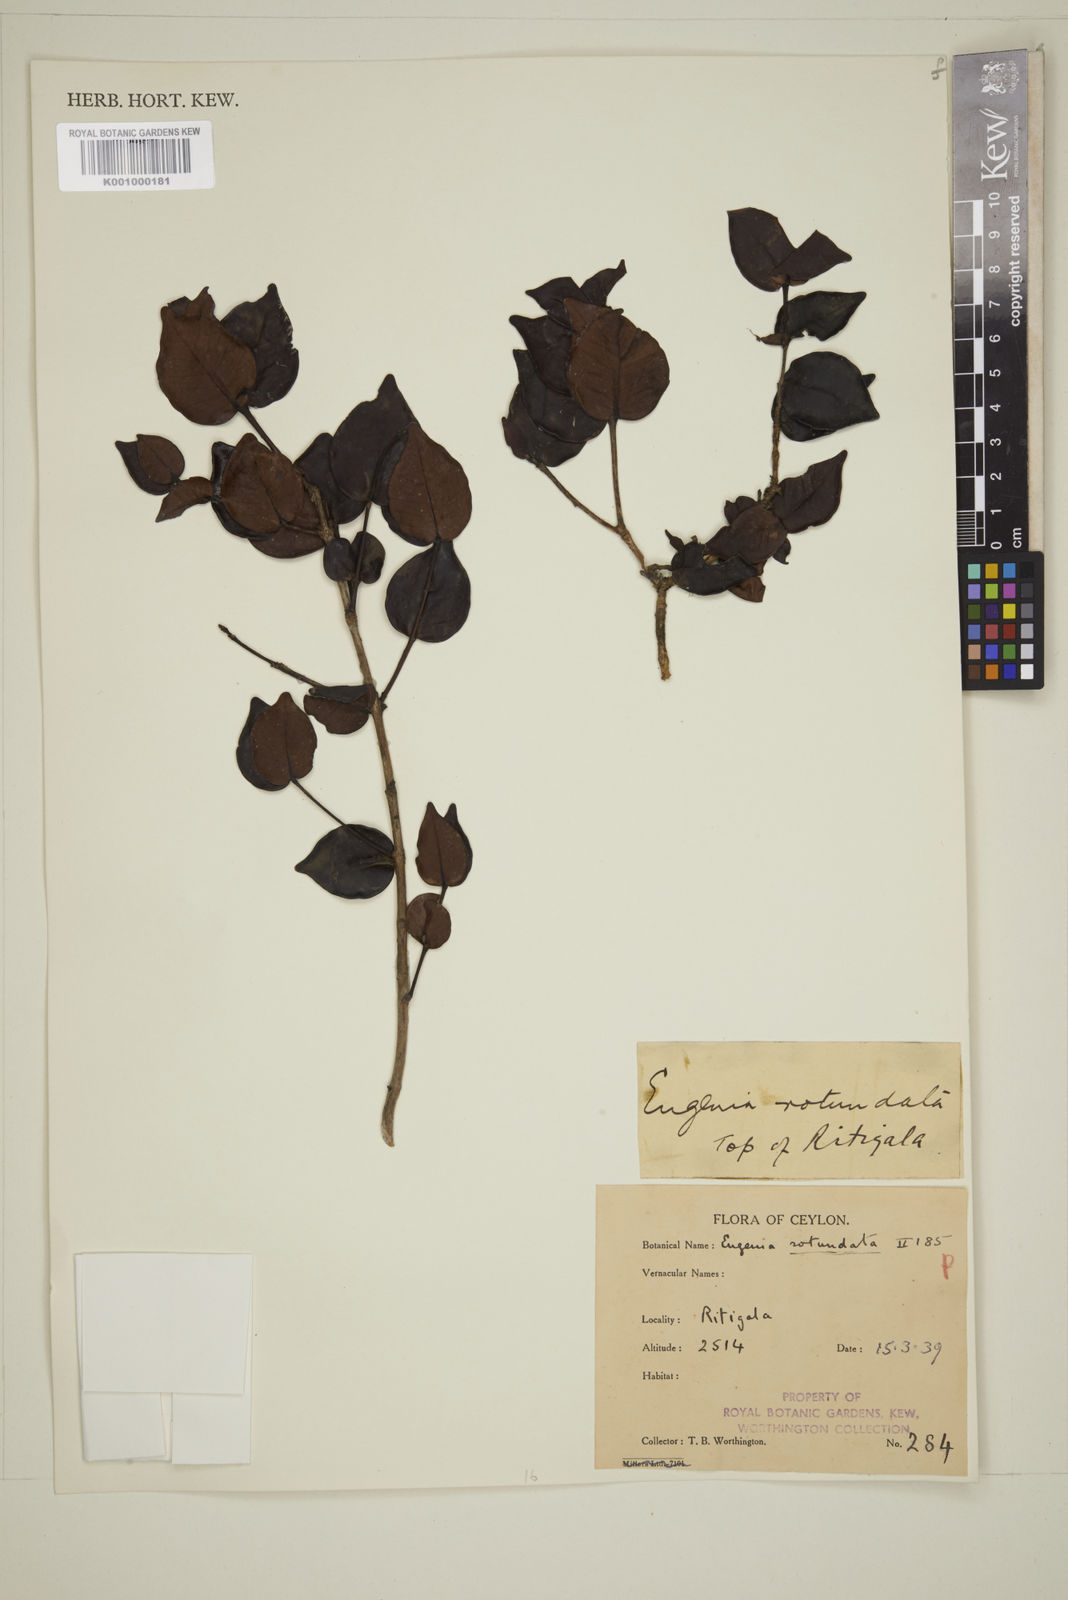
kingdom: Plantae
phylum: Tracheophyta
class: Magnoliopsida
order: Myrtales
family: Myrtaceae
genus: Eugenia
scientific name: Eugenia rotundata
